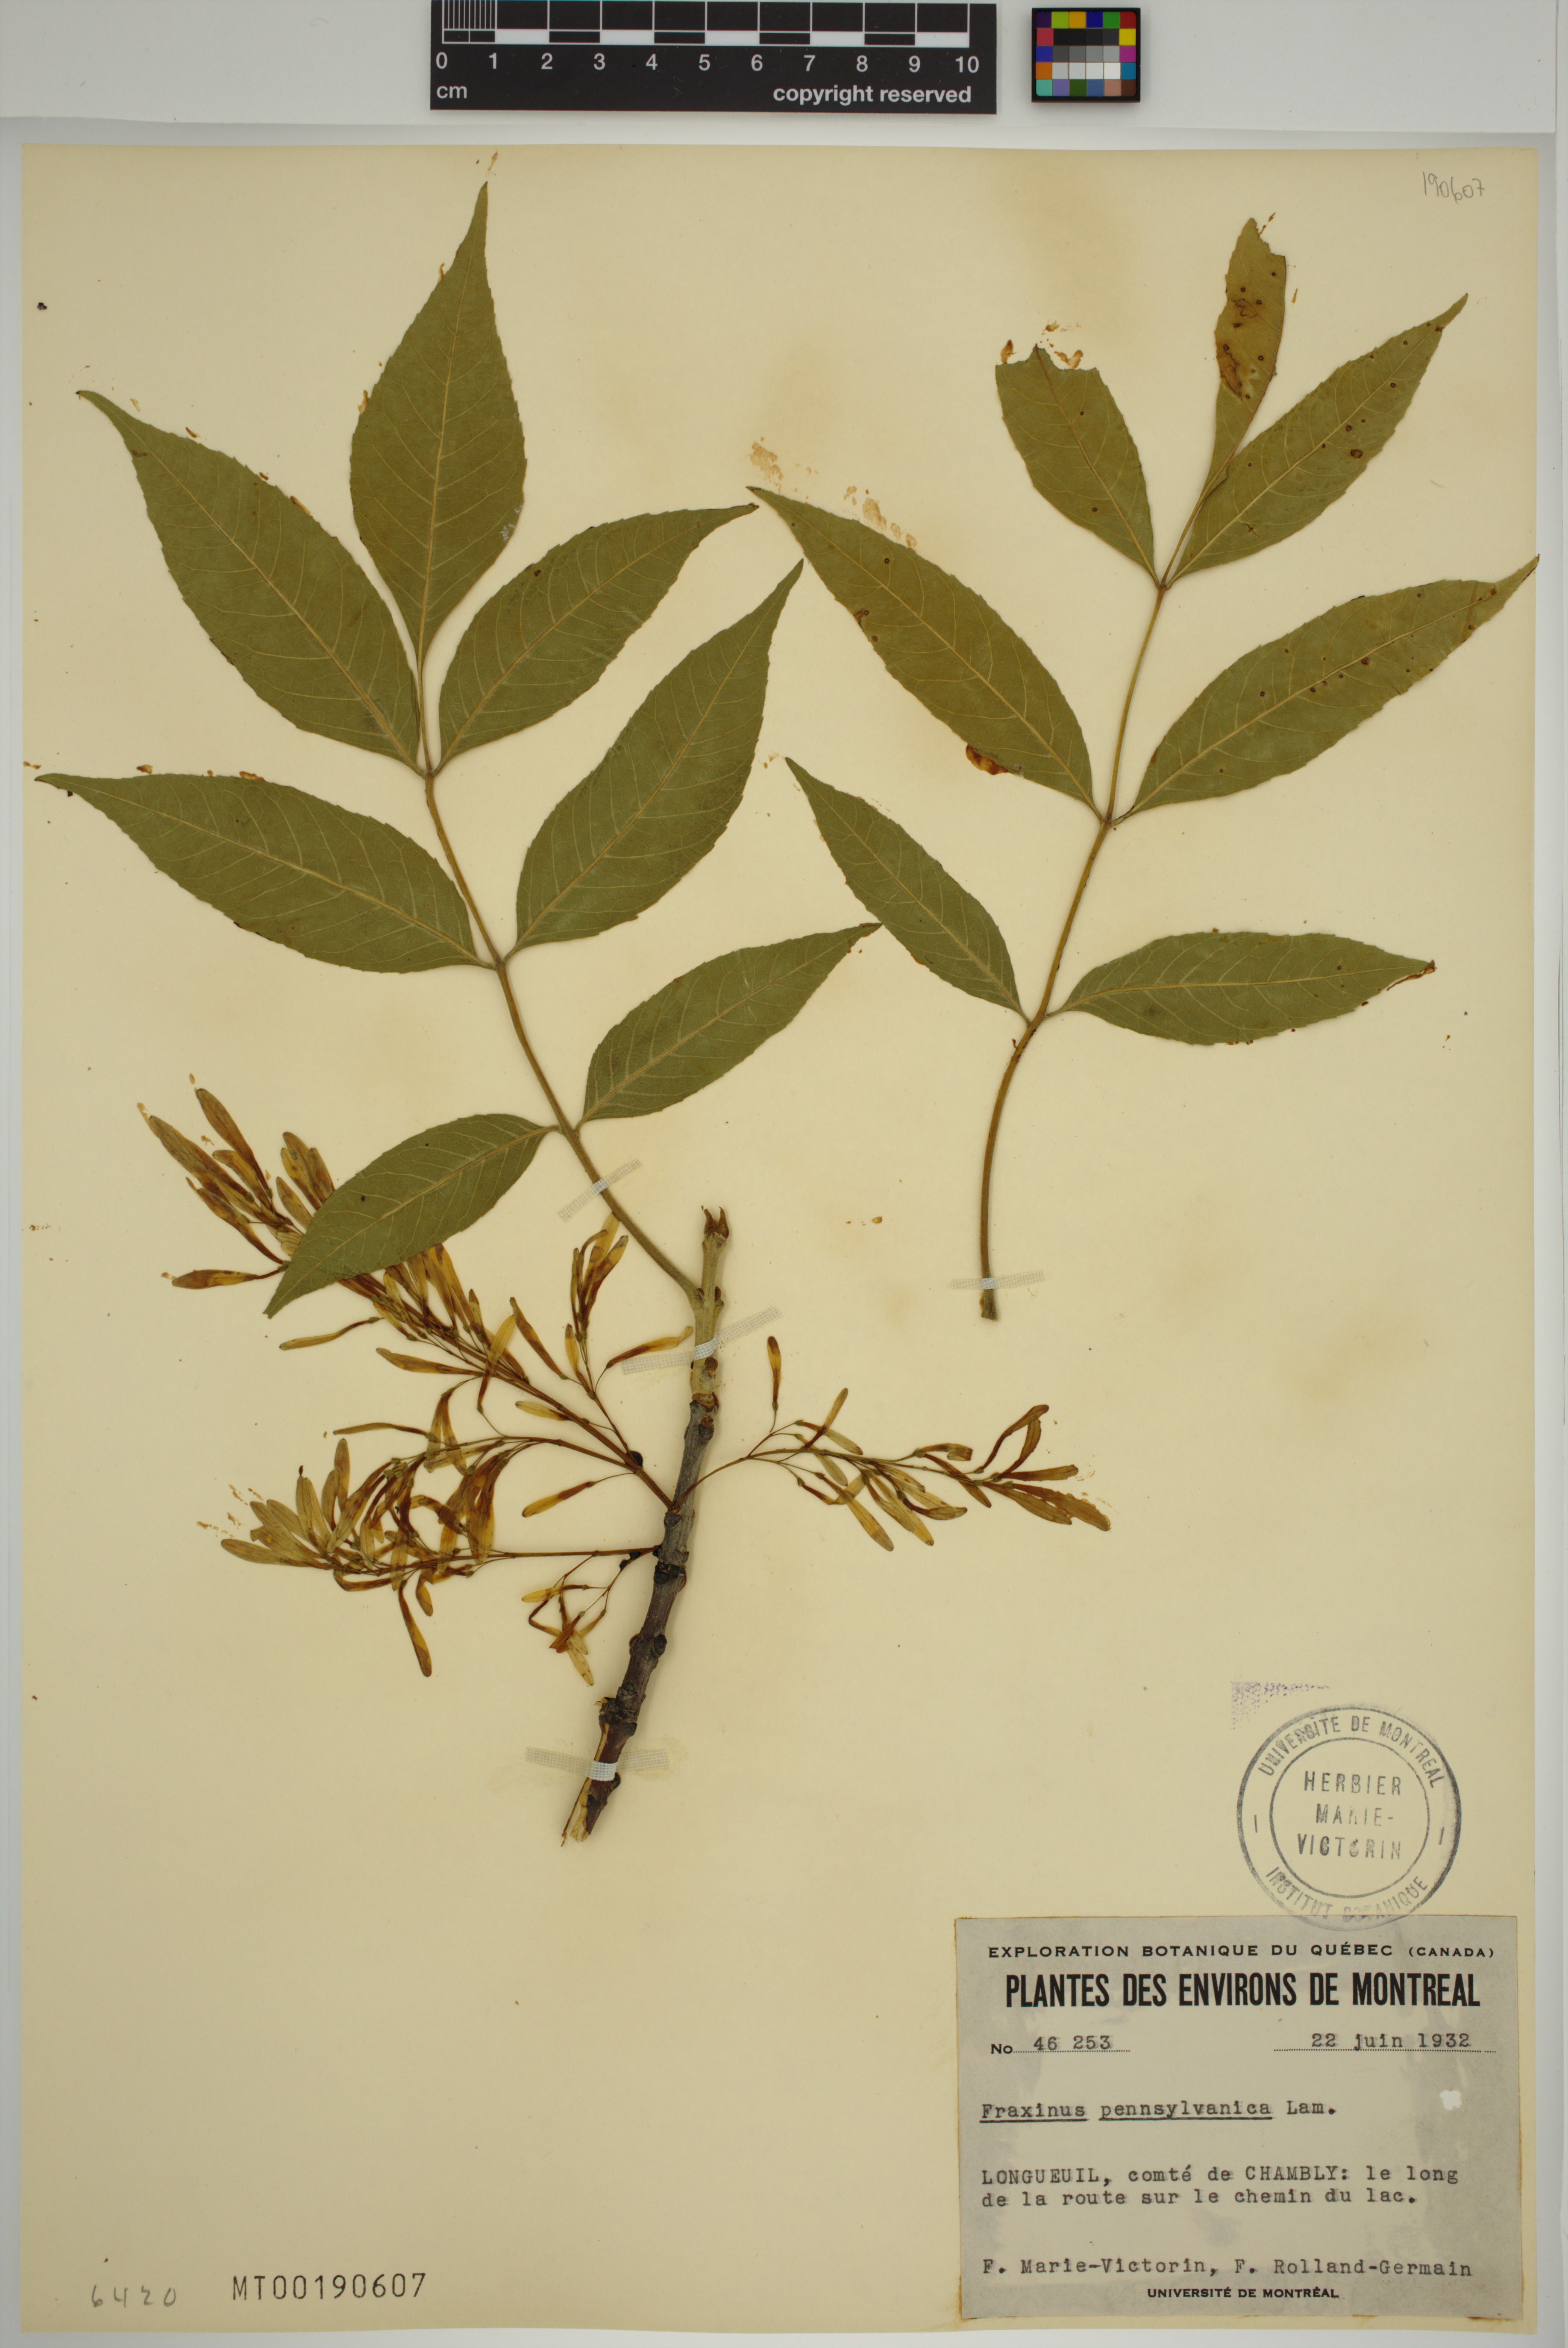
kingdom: Plantae
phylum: Tracheophyta
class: Magnoliopsida
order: Lamiales
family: Oleaceae
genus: Fraxinus
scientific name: Fraxinus pennsylvanica
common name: Green ash
